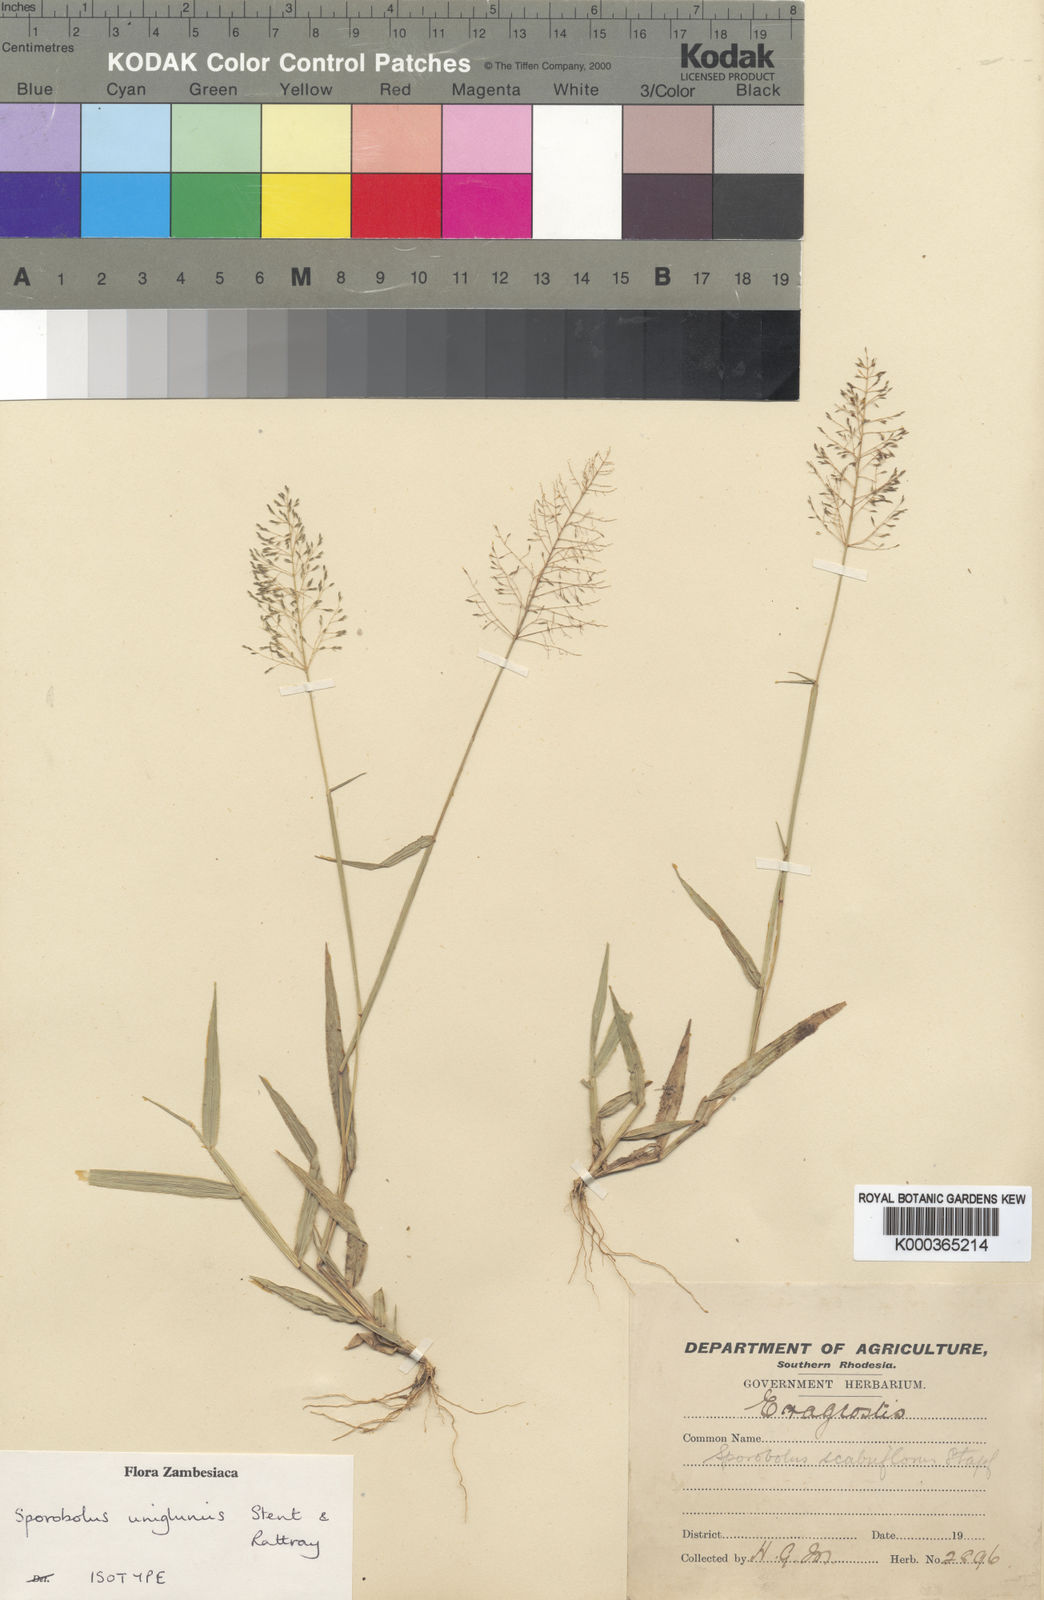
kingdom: Plantae
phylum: Tracheophyta
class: Liliopsida
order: Poales
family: Poaceae
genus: Sporobolus
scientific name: Sporobolus uniglumis
